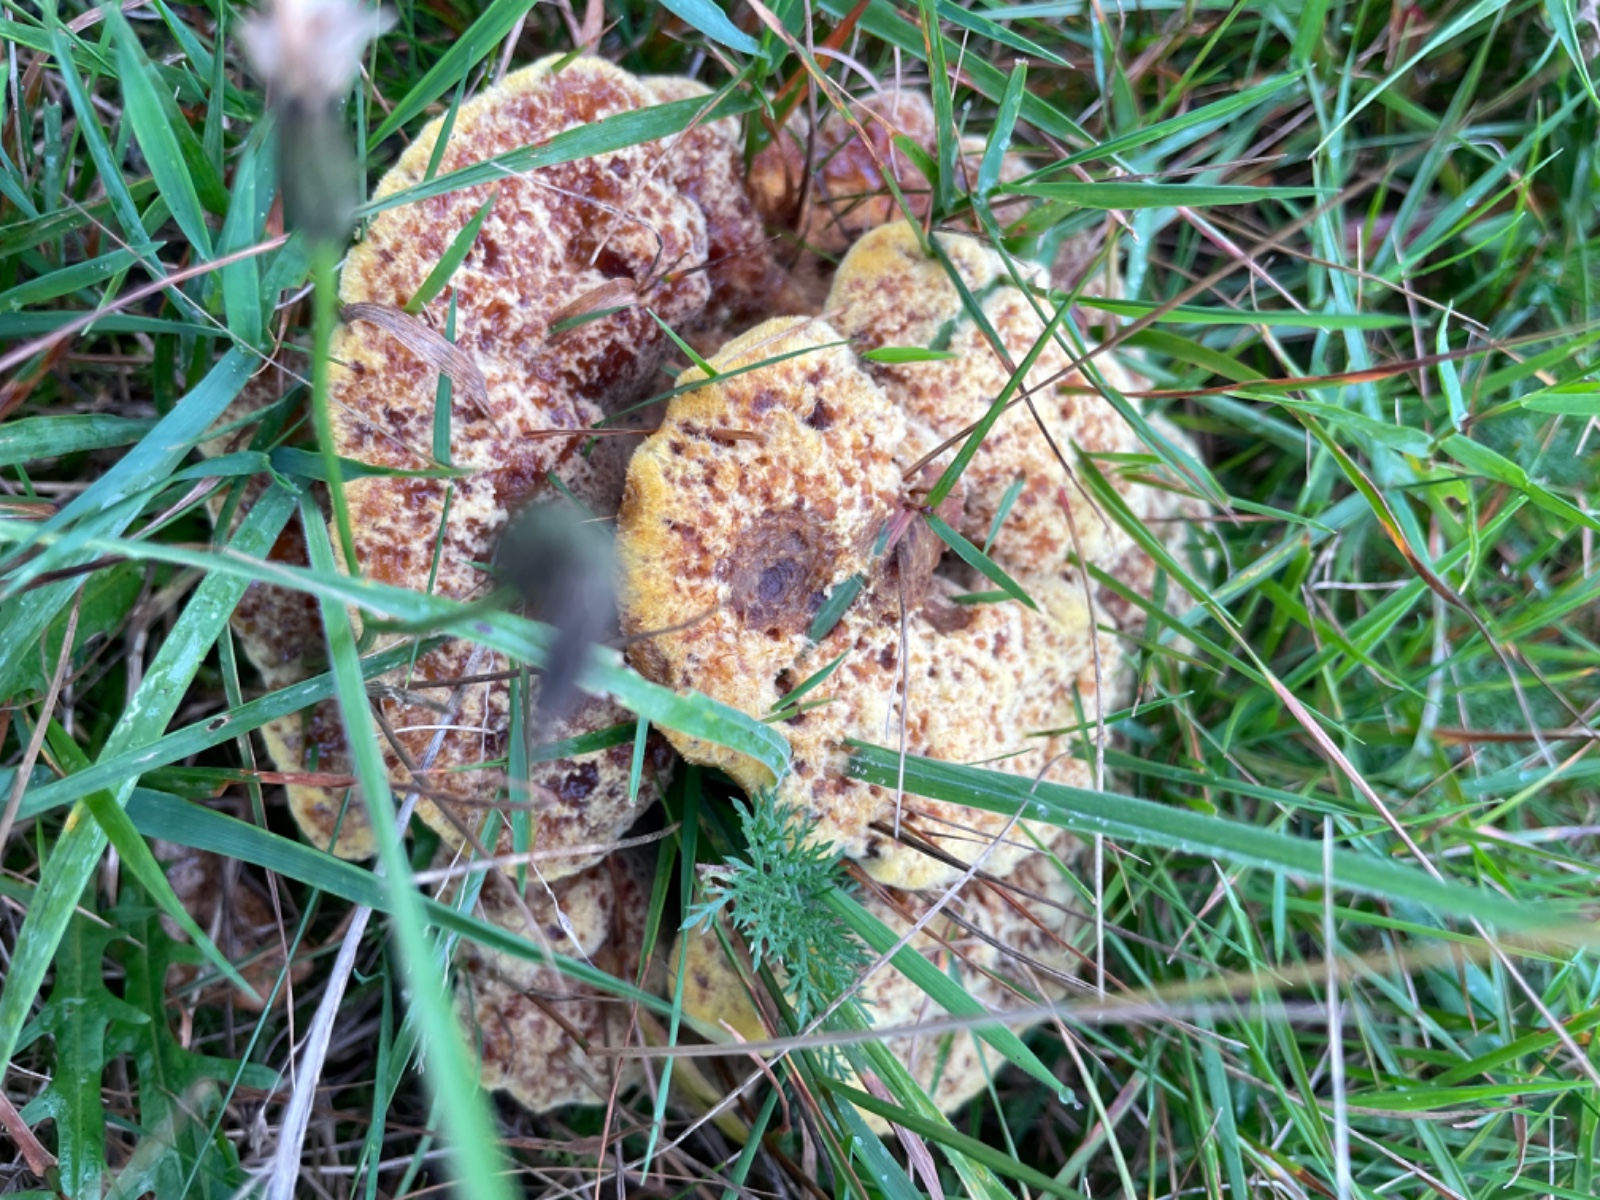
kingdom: Fungi
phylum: Basidiomycota
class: Agaricomycetes
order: Polyporales
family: Laetiporaceae
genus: Phaeolus
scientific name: Phaeolus schweinitzii
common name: brunporesvamp
